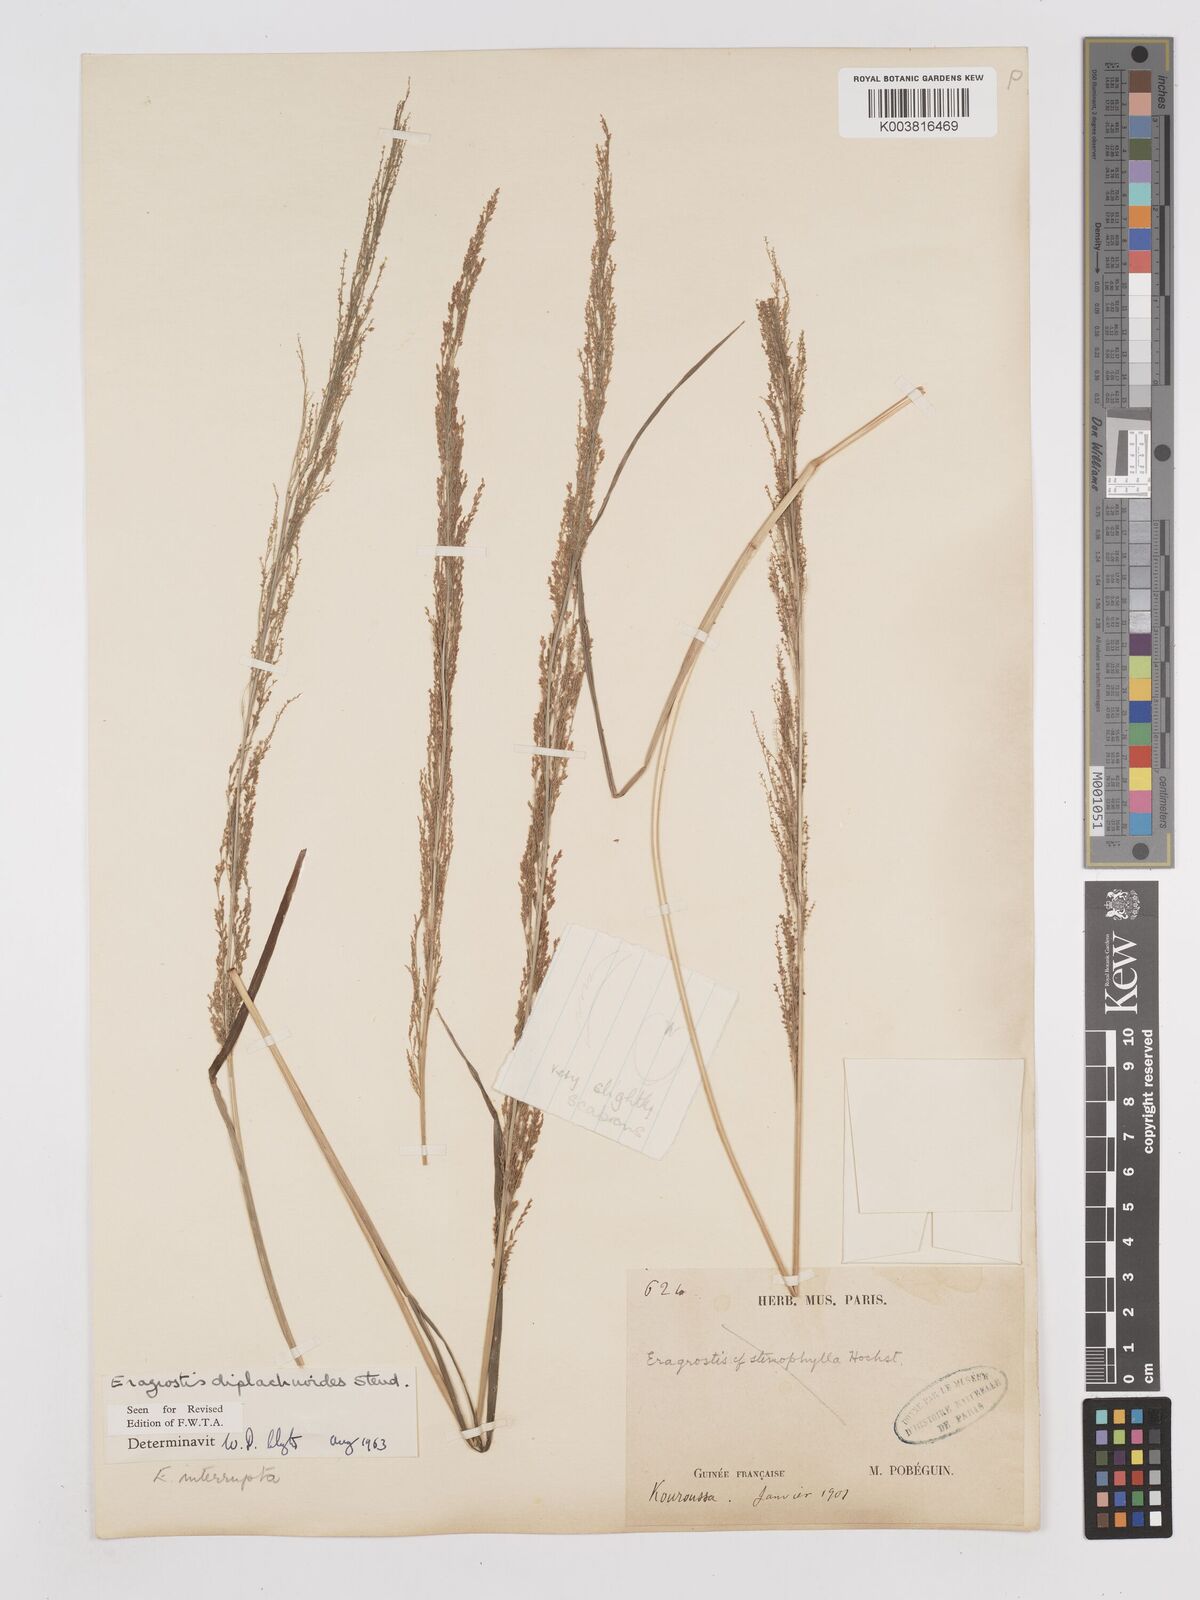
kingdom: Plantae
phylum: Tracheophyta
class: Liliopsida
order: Poales
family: Poaceae
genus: Eragrostis
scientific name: Eragrostis japonica
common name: Pond lovegrass
